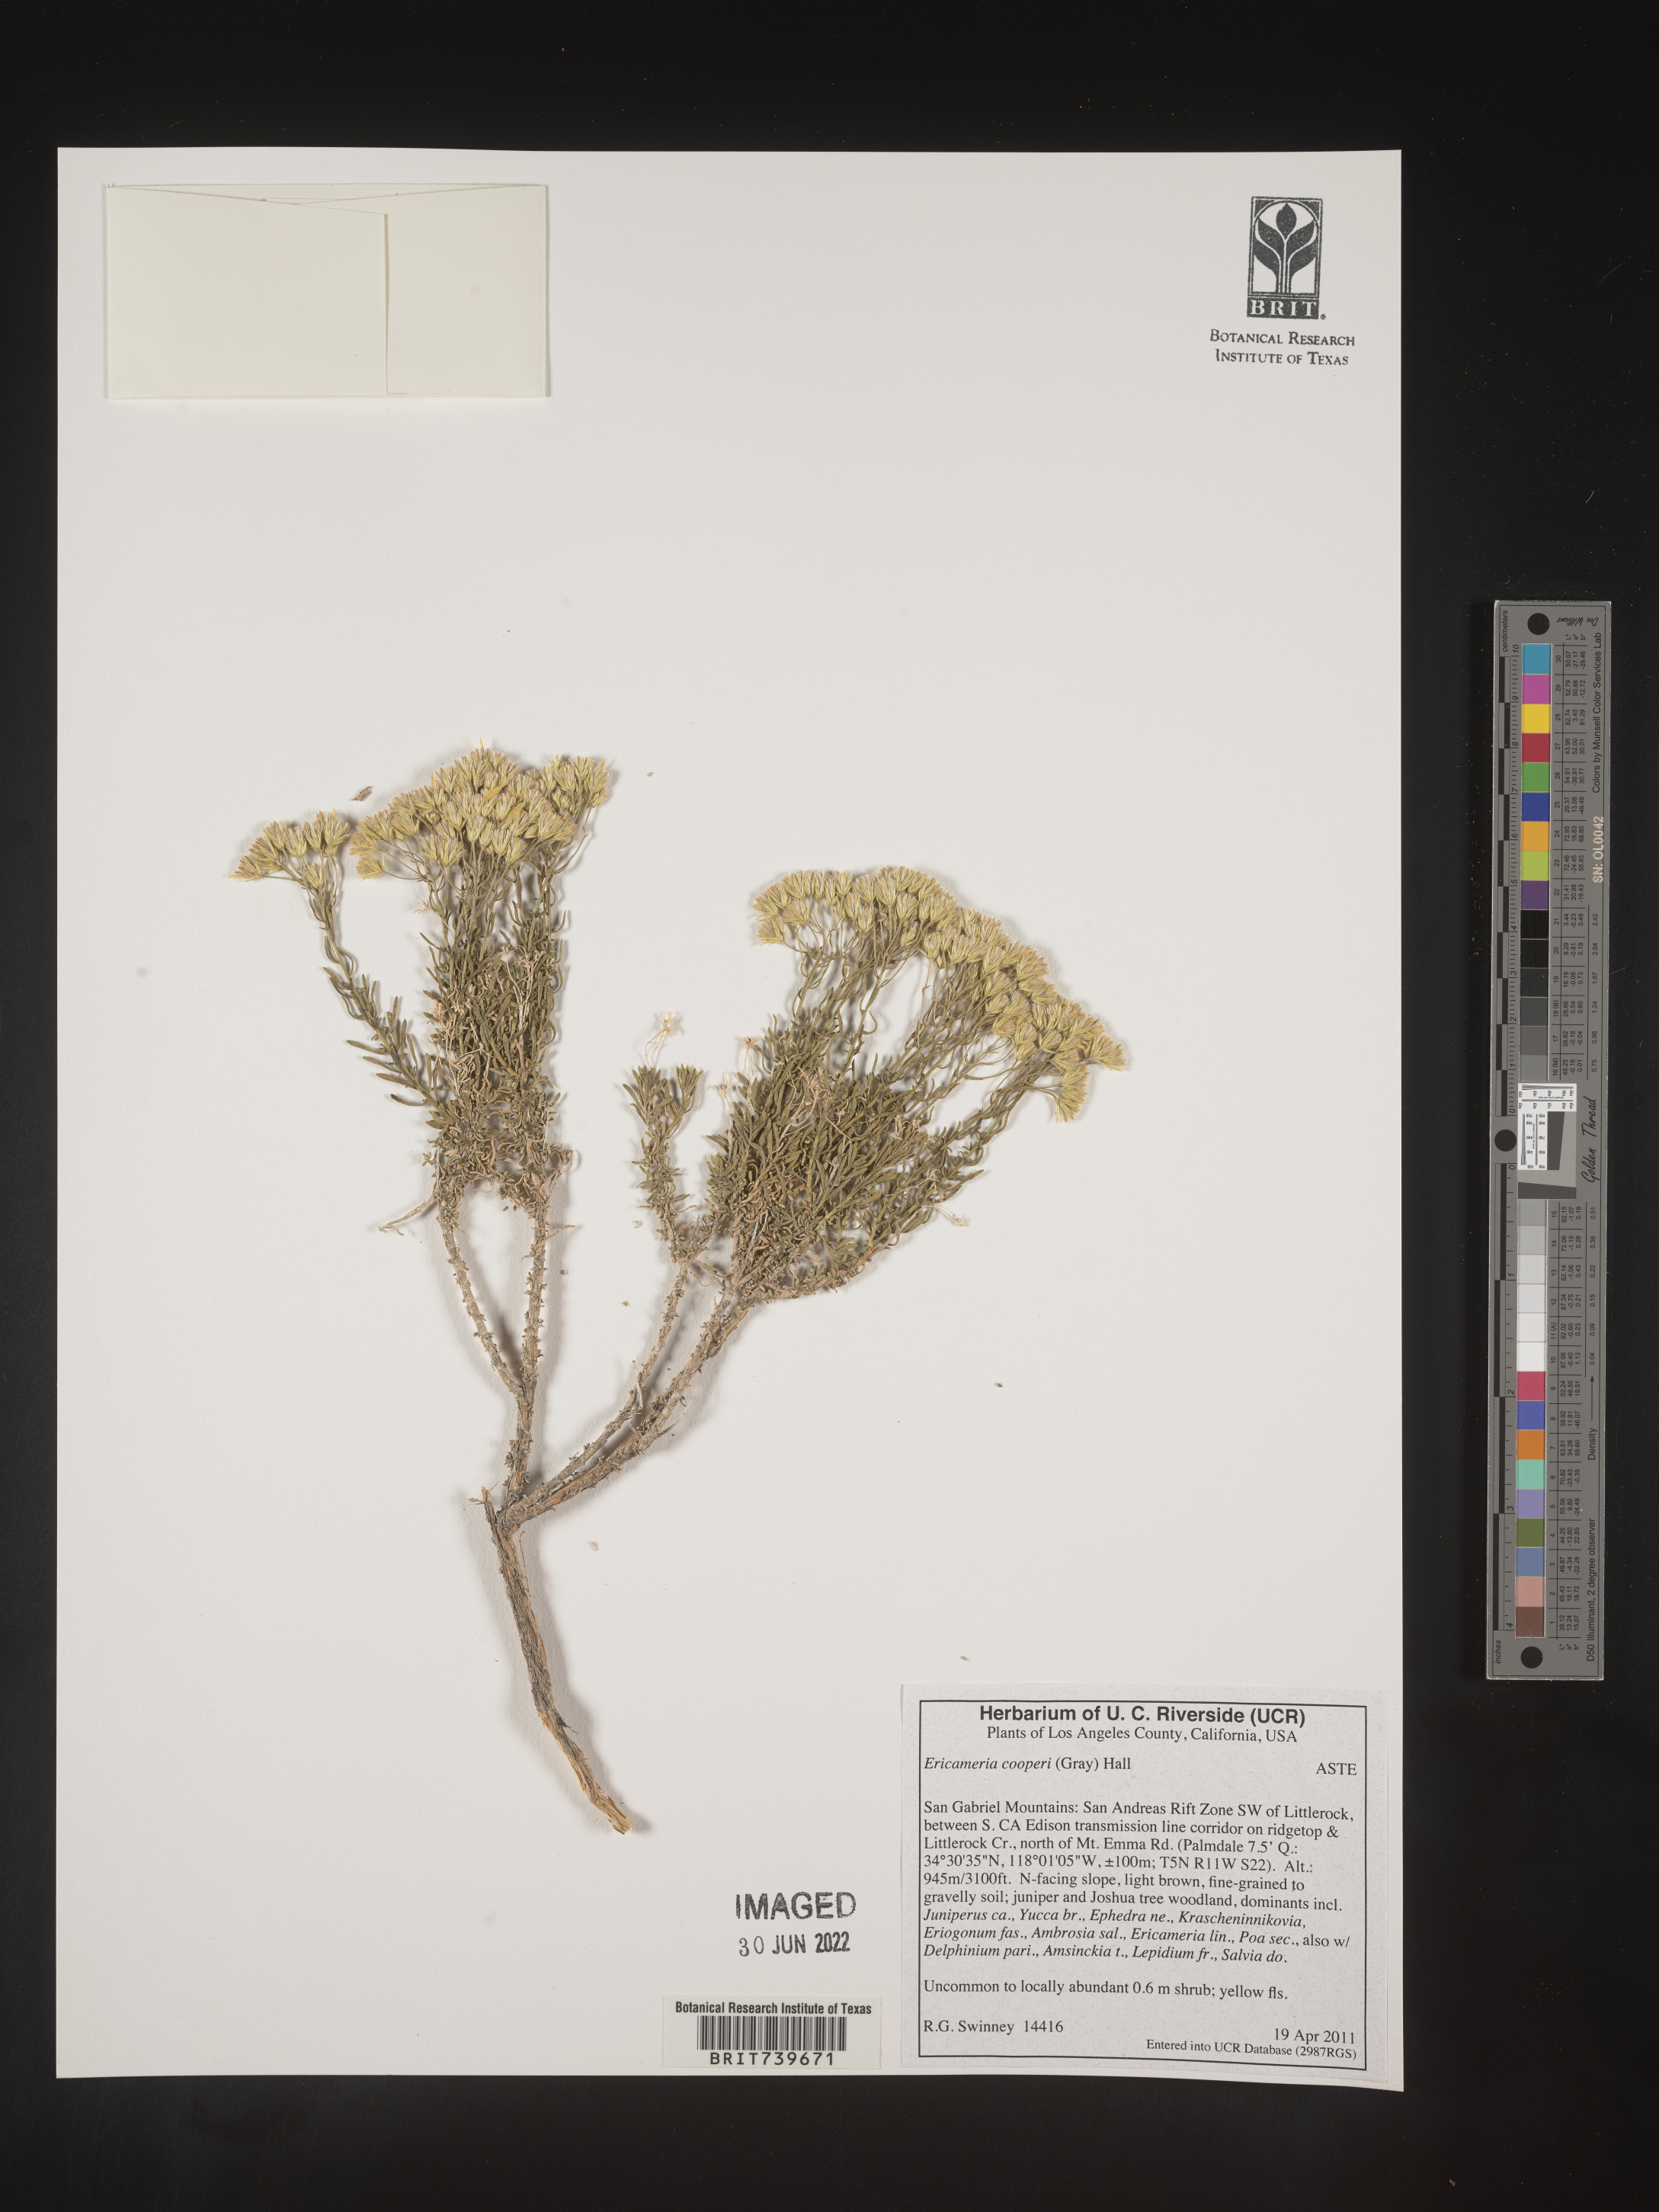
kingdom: Plantae
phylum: Tracheophyta
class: Magnoliopsida
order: Asterales
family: Asteraceae
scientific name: Asteraceae
